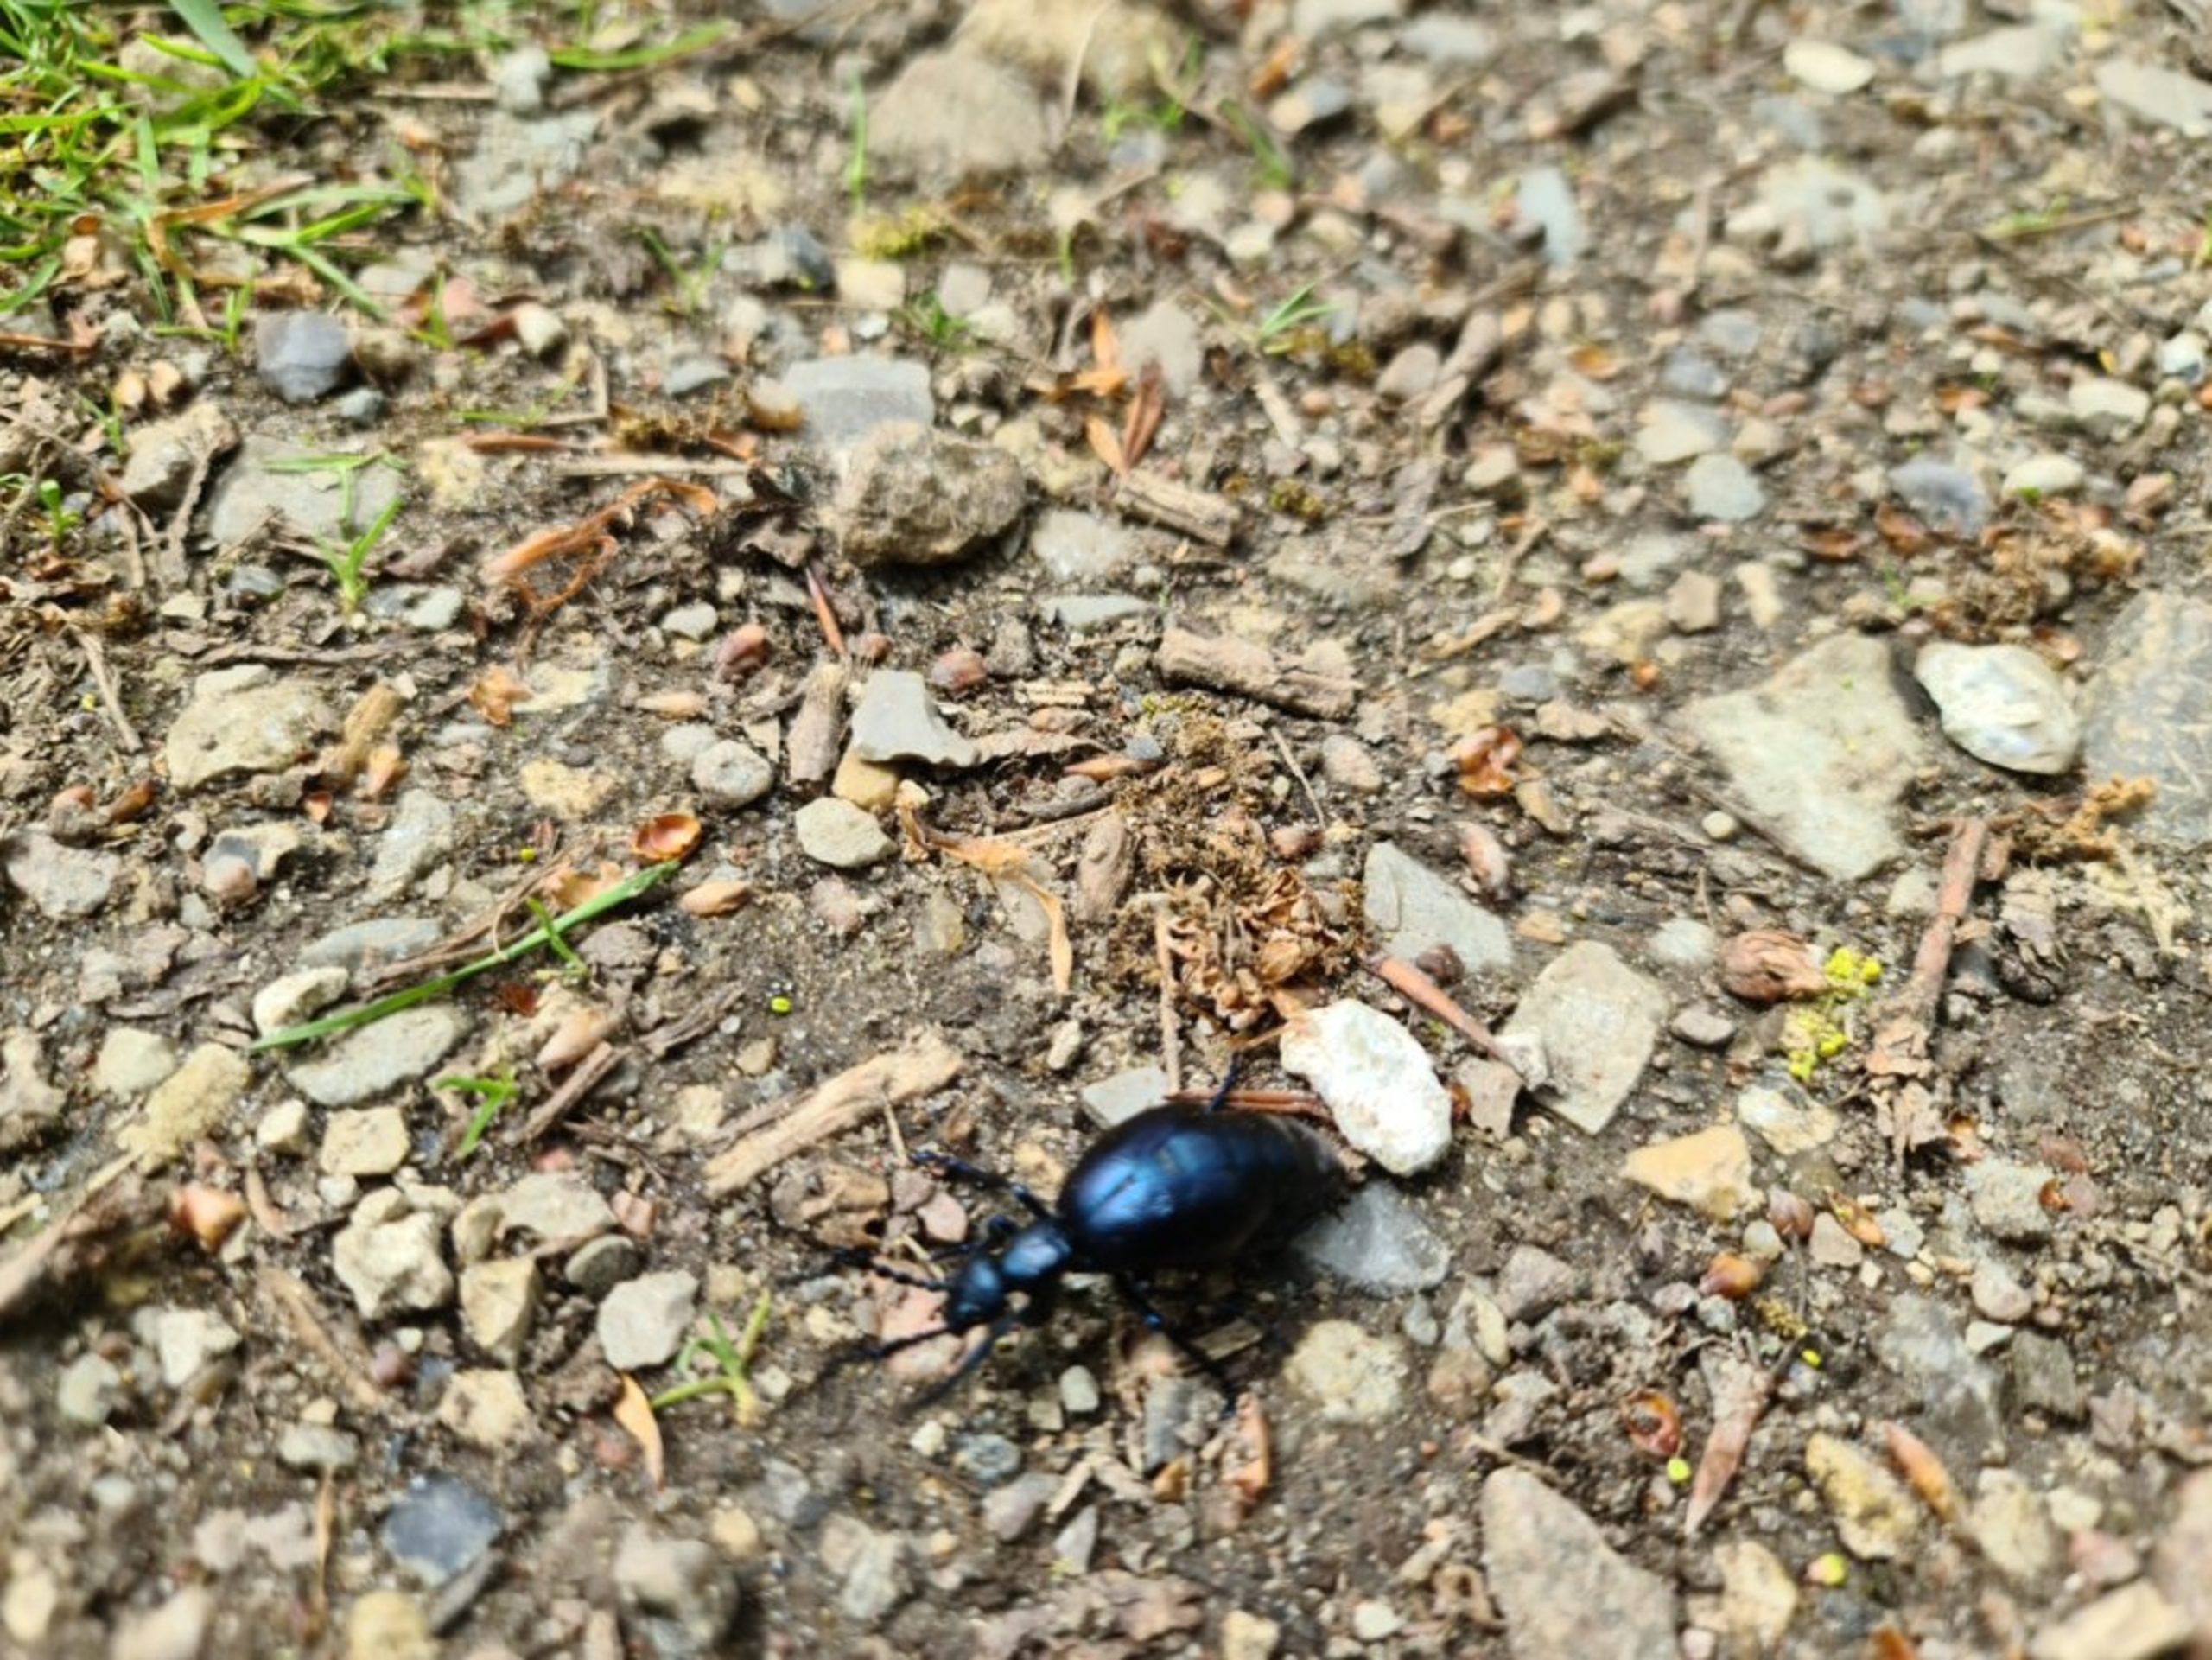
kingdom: Animalia
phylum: Arthropoda
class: Insecta
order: Coleoptera
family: Meloidae
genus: Meloe
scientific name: Meloe violaceus
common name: Blå oliebille
